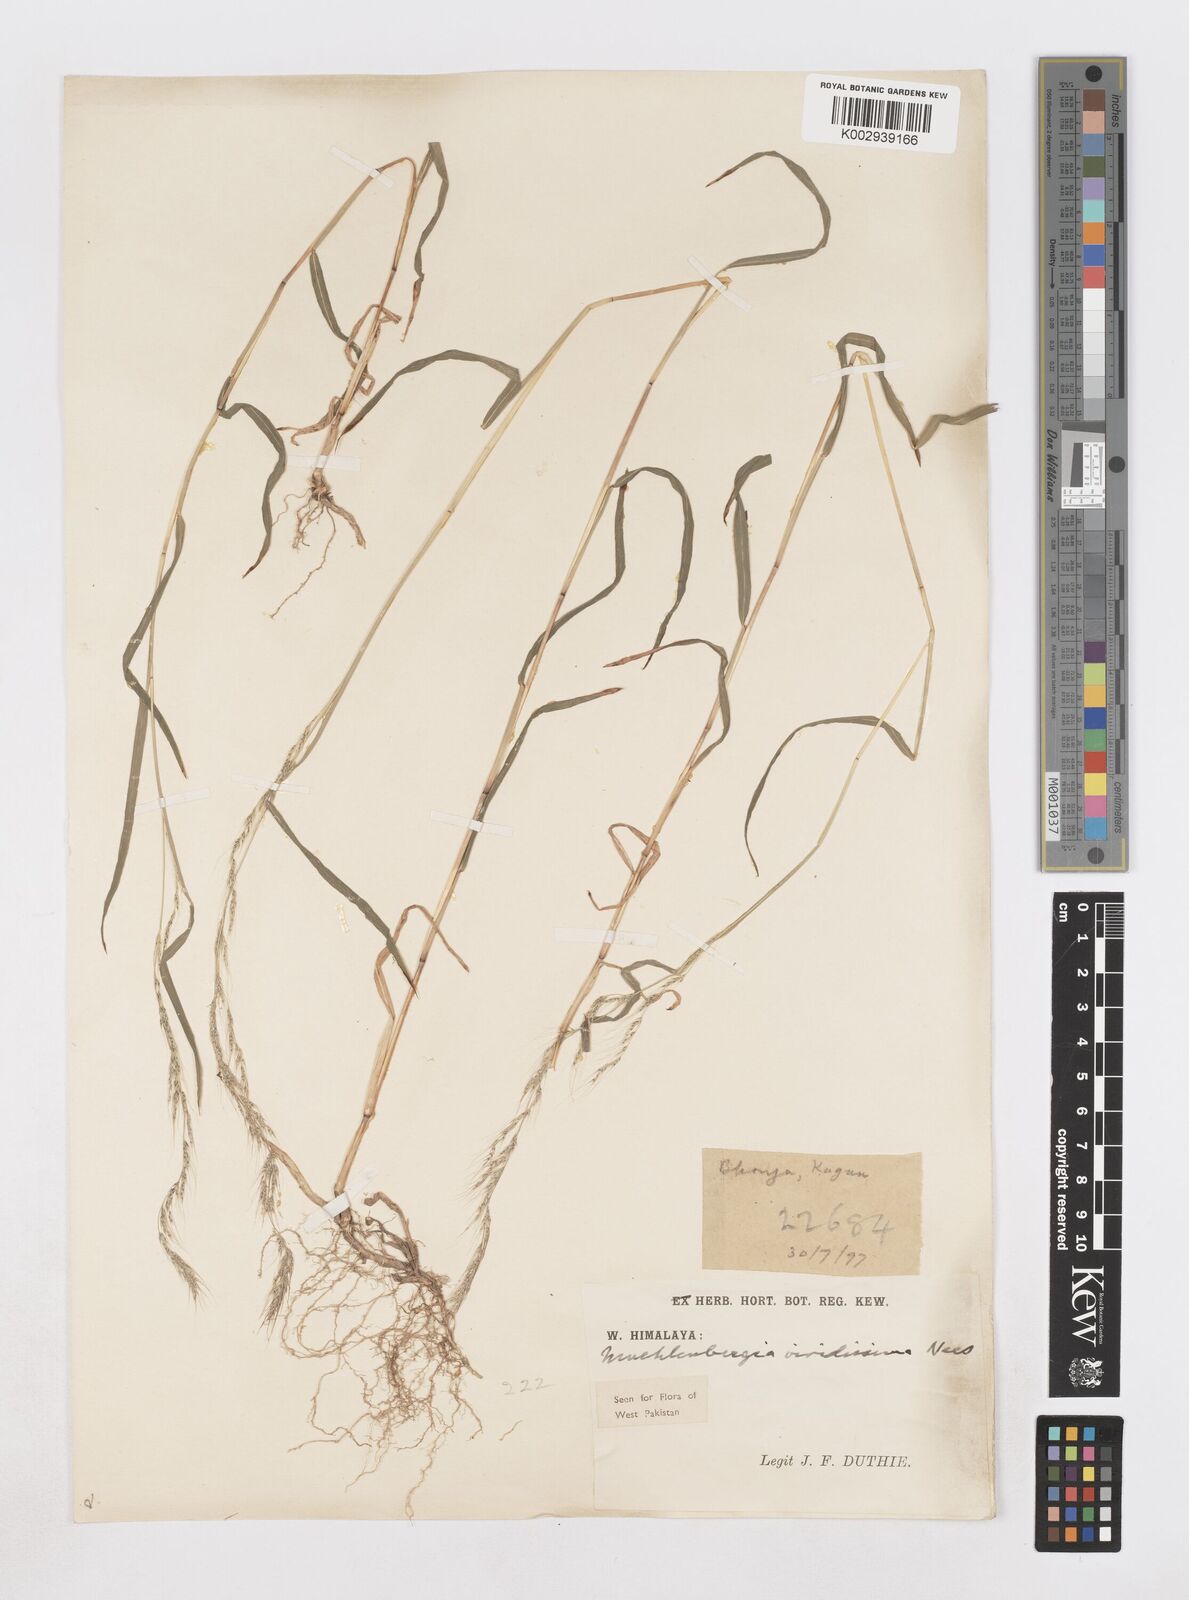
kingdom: Plantae
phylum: Tracheophyta
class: Liliopsida
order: Poales
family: Poaceae
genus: Muhlenbergia
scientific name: Muhlenbergia huegelii
